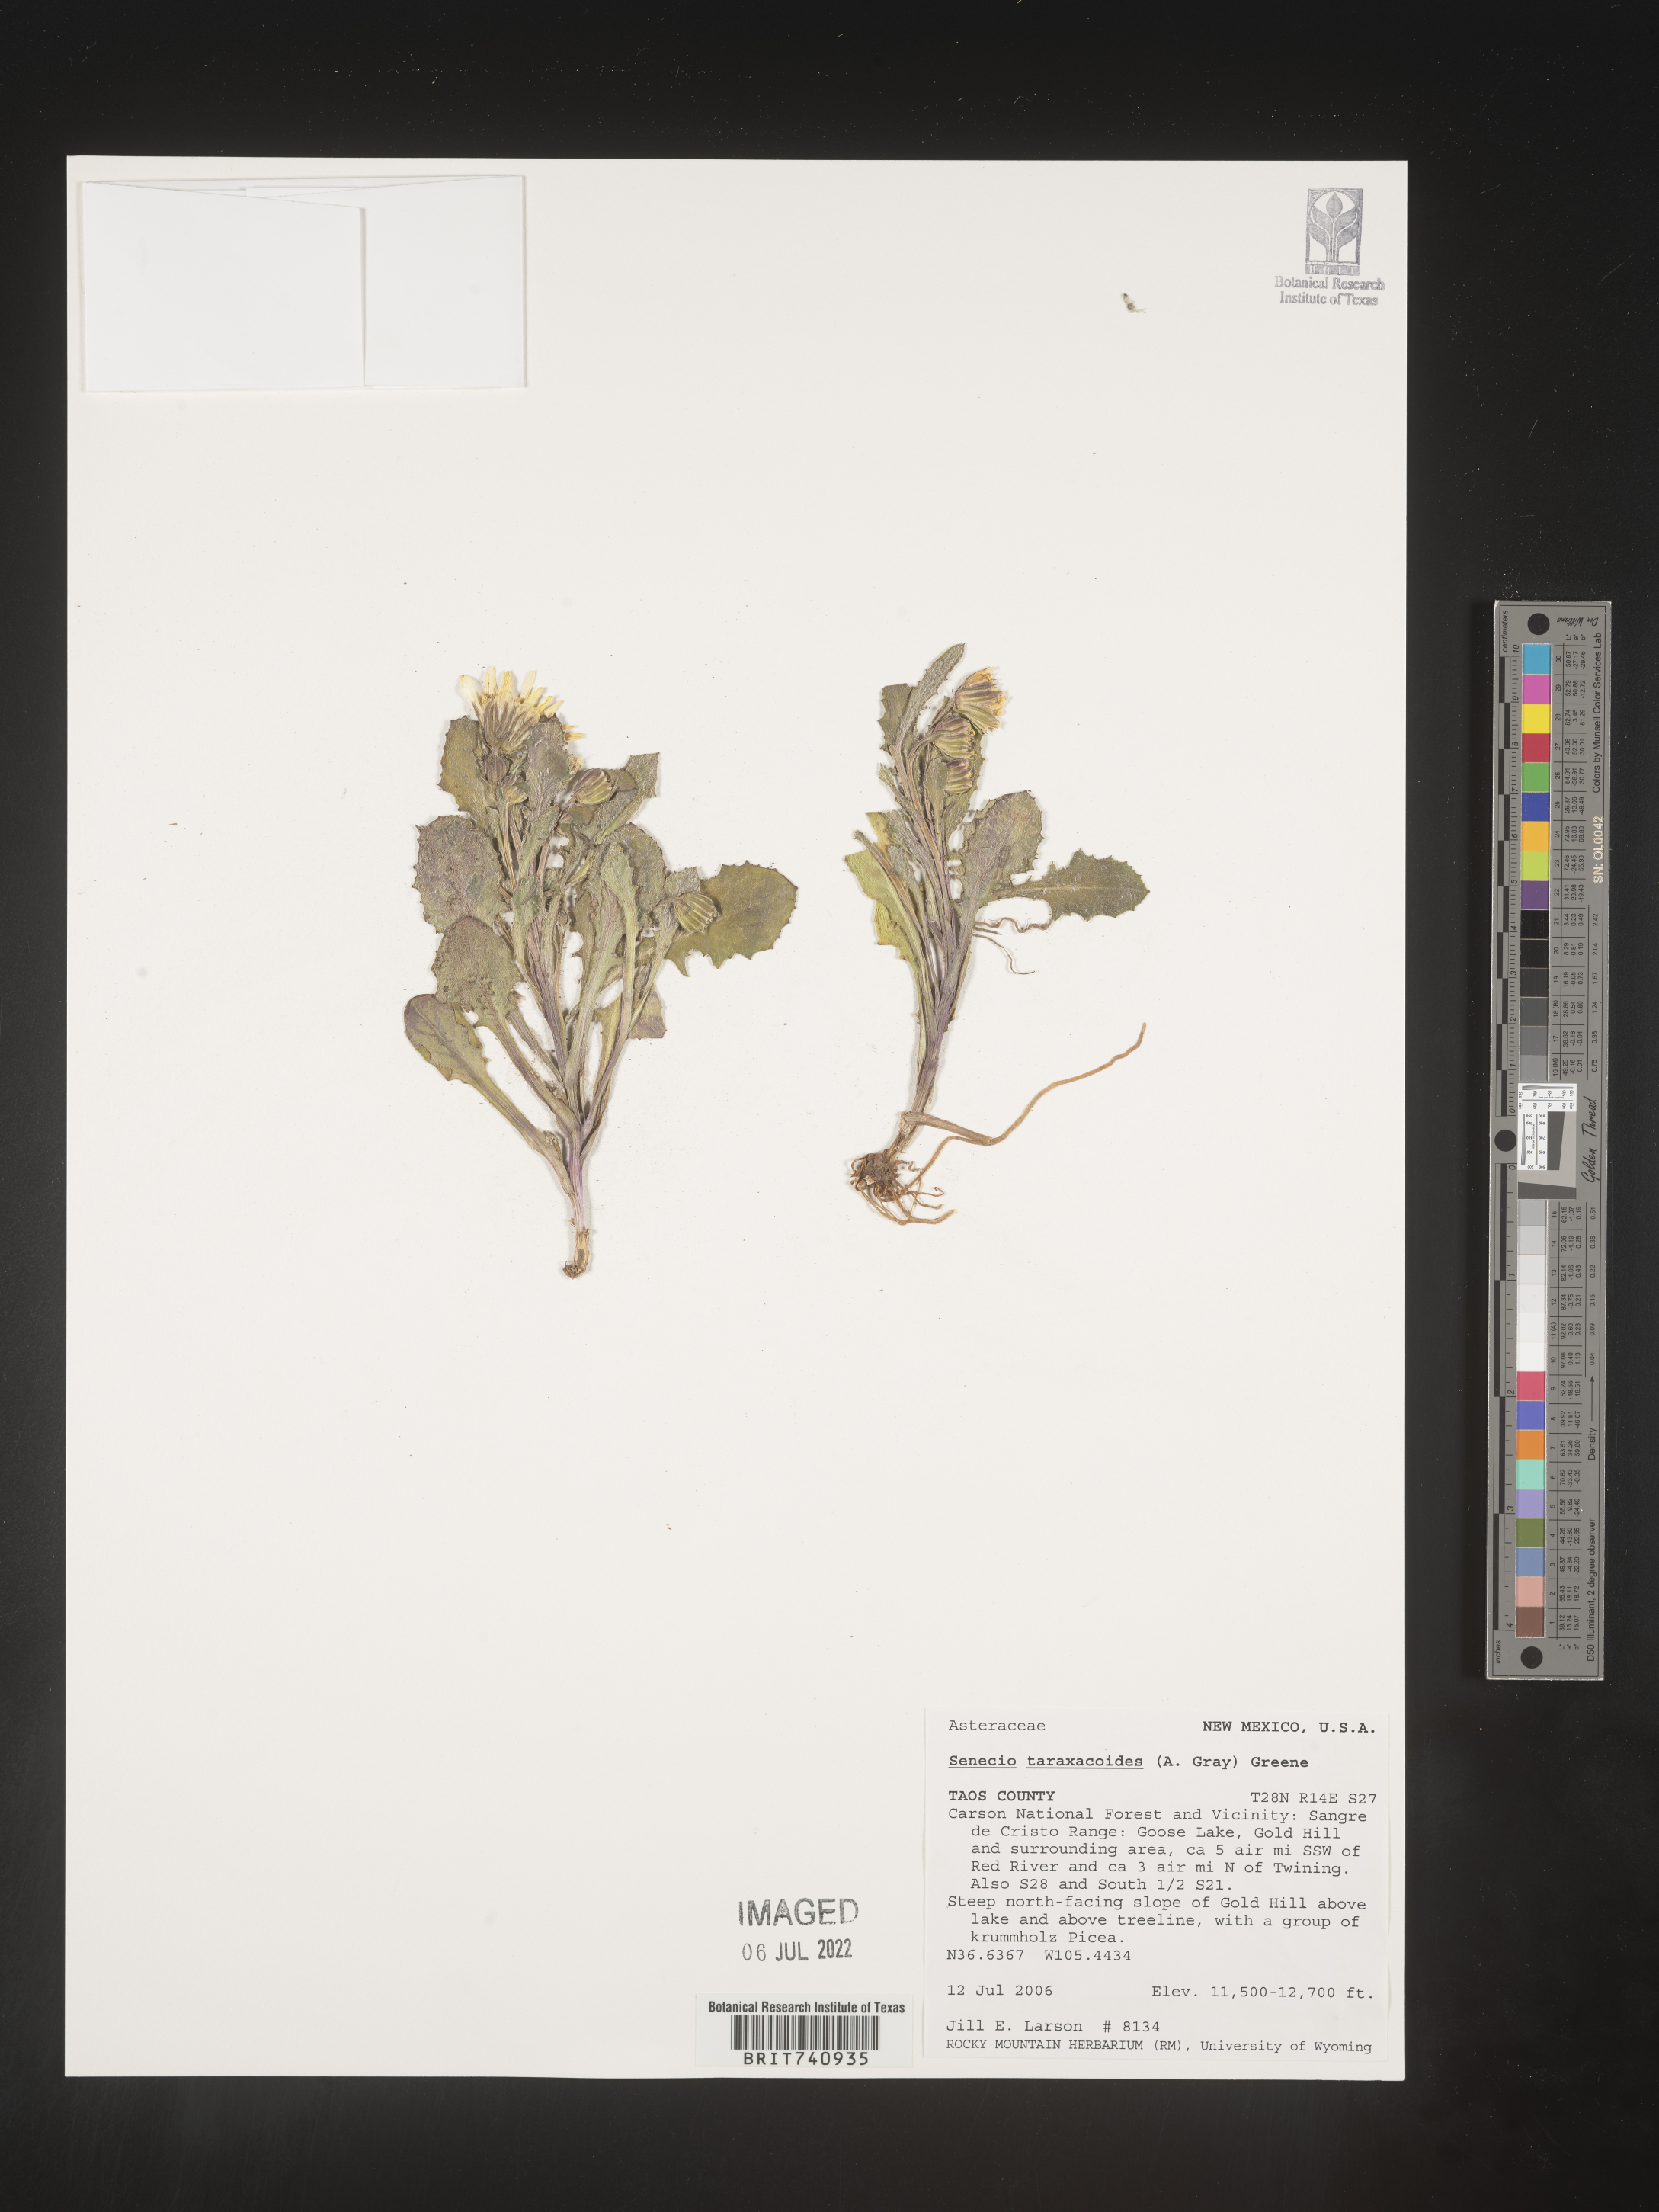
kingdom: Plantae
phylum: Tracheophyta
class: Magnoliopsida
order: Asterales
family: Asteraceae
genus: Senecio
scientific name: Senecio taraxacoides
